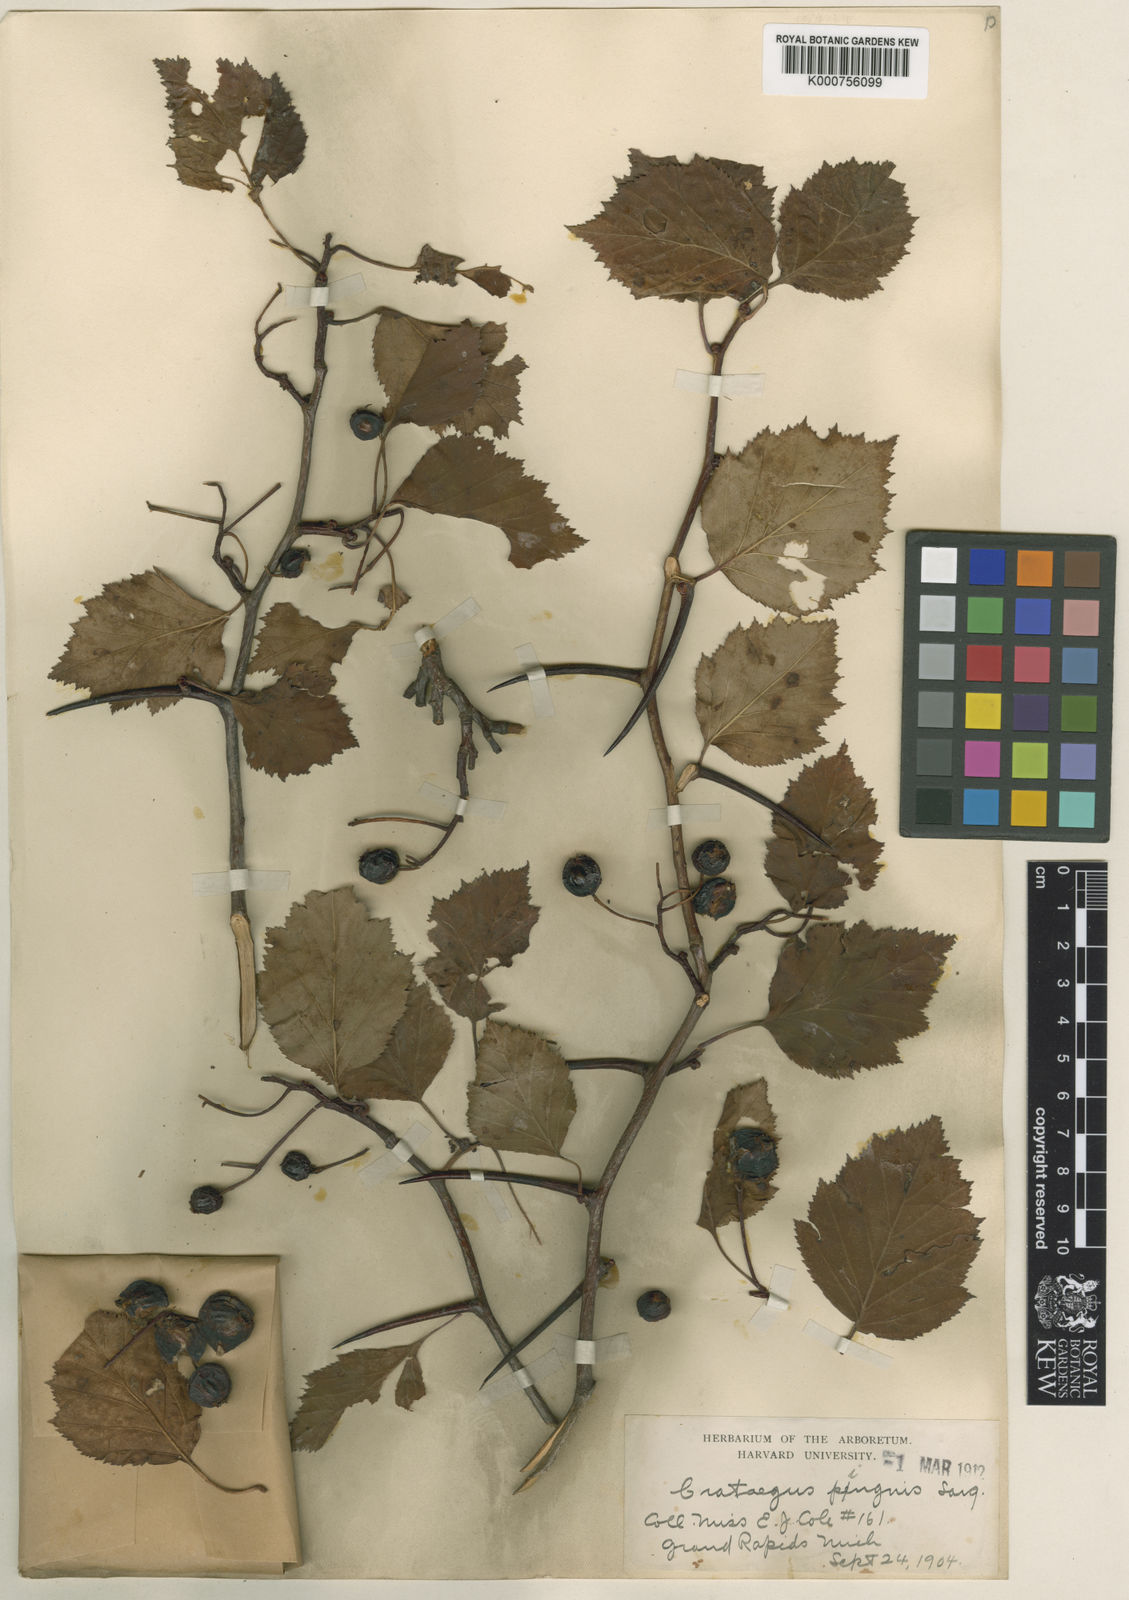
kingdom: Plantae
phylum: Tracheophyta
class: Magnoliopsida
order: Rosales
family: Rosaceae
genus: Crataegus
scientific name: Crataegus scabrida
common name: Rough hawthorn
